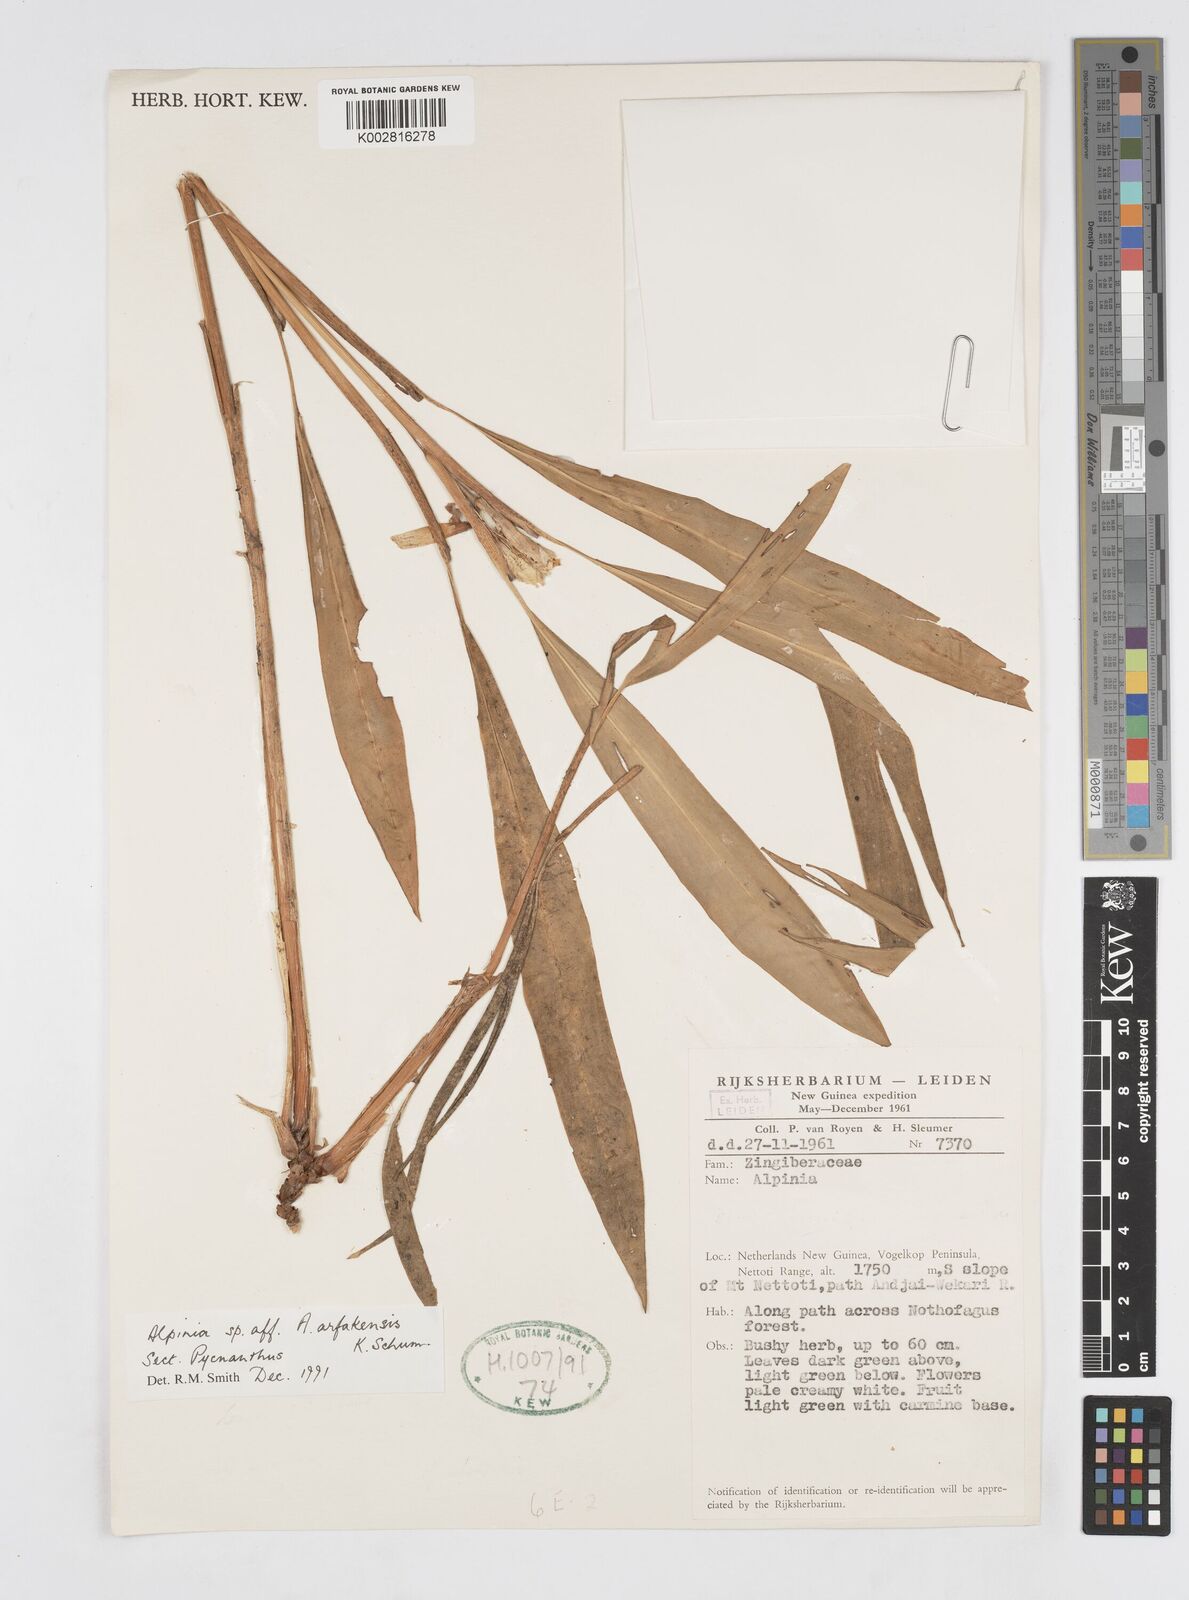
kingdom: Plantae
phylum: Tracheophyta
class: Liliopsida
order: Zingiberales
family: Zingiberaceae
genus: Alpinia
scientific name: Alpinia arfakensis
